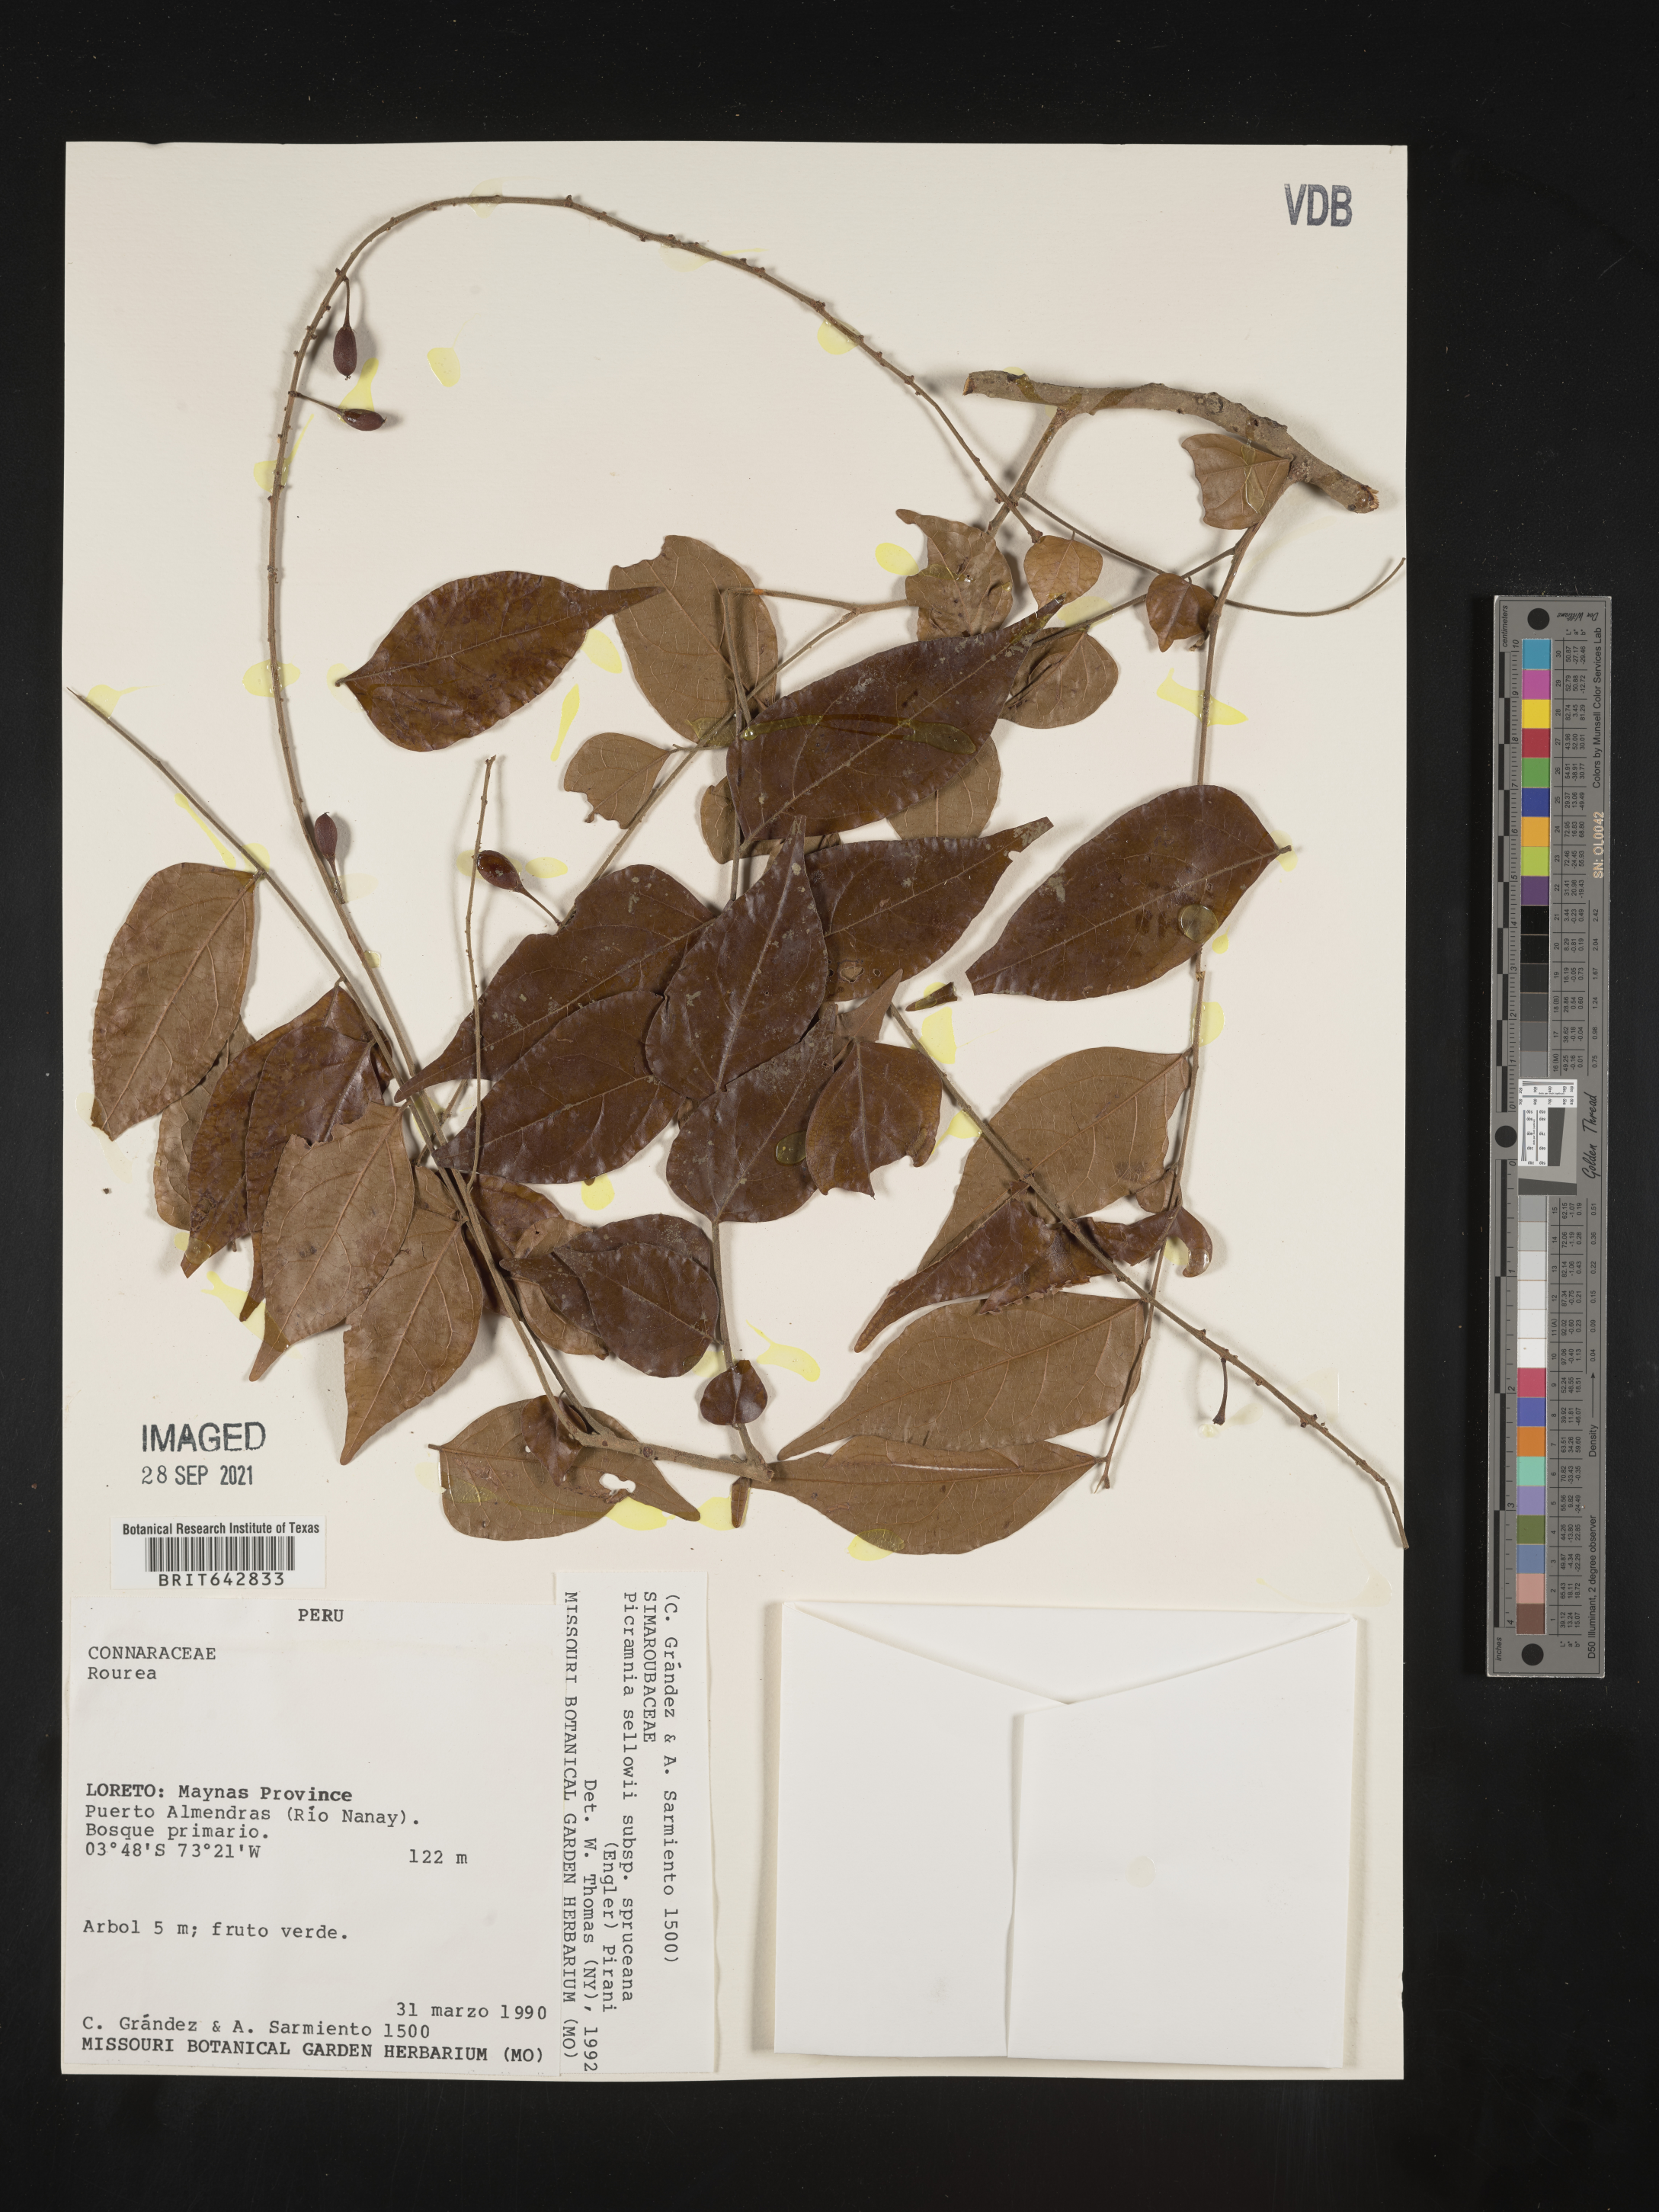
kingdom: Plantae
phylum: Tracheophyta
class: Magnoliopsida
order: Picramniales
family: Picramniaceae
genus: Picramnia
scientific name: Picramnia
